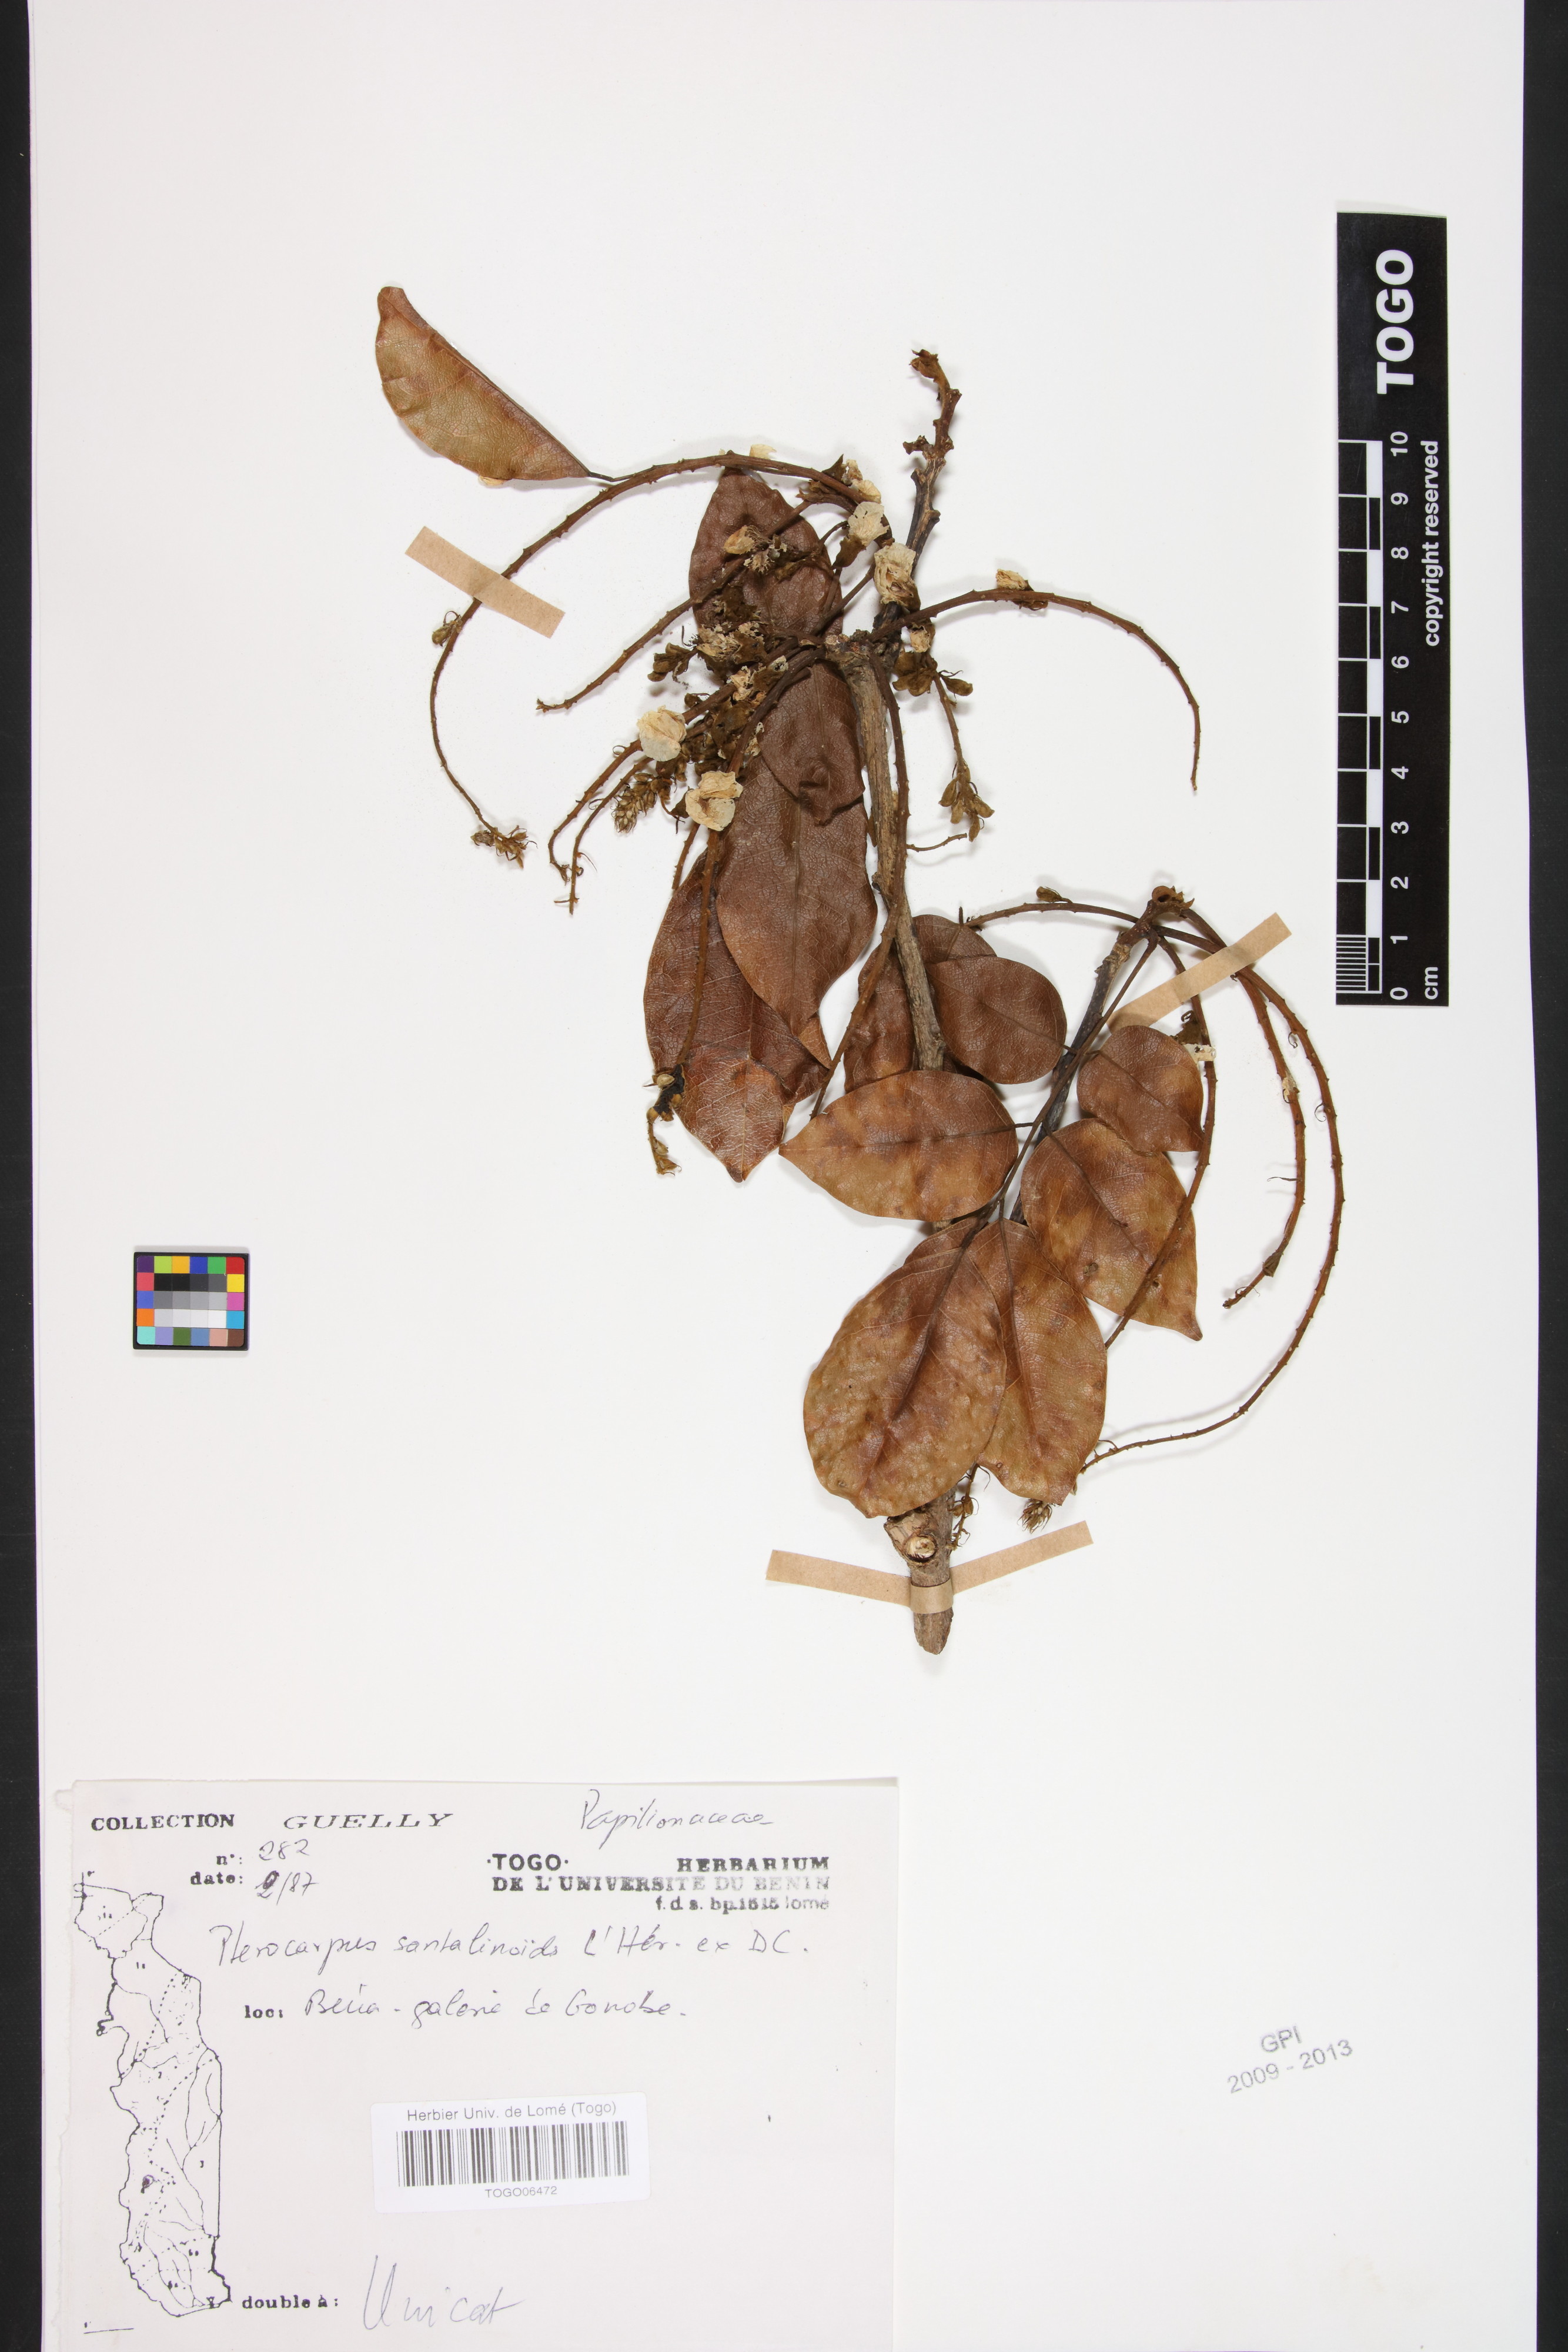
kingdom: Plantae
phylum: Tracheophyta
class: Magnoliopsida
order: Fabales
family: Fabaceae
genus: Pterocarpus
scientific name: Pterocarpus santalinoides
